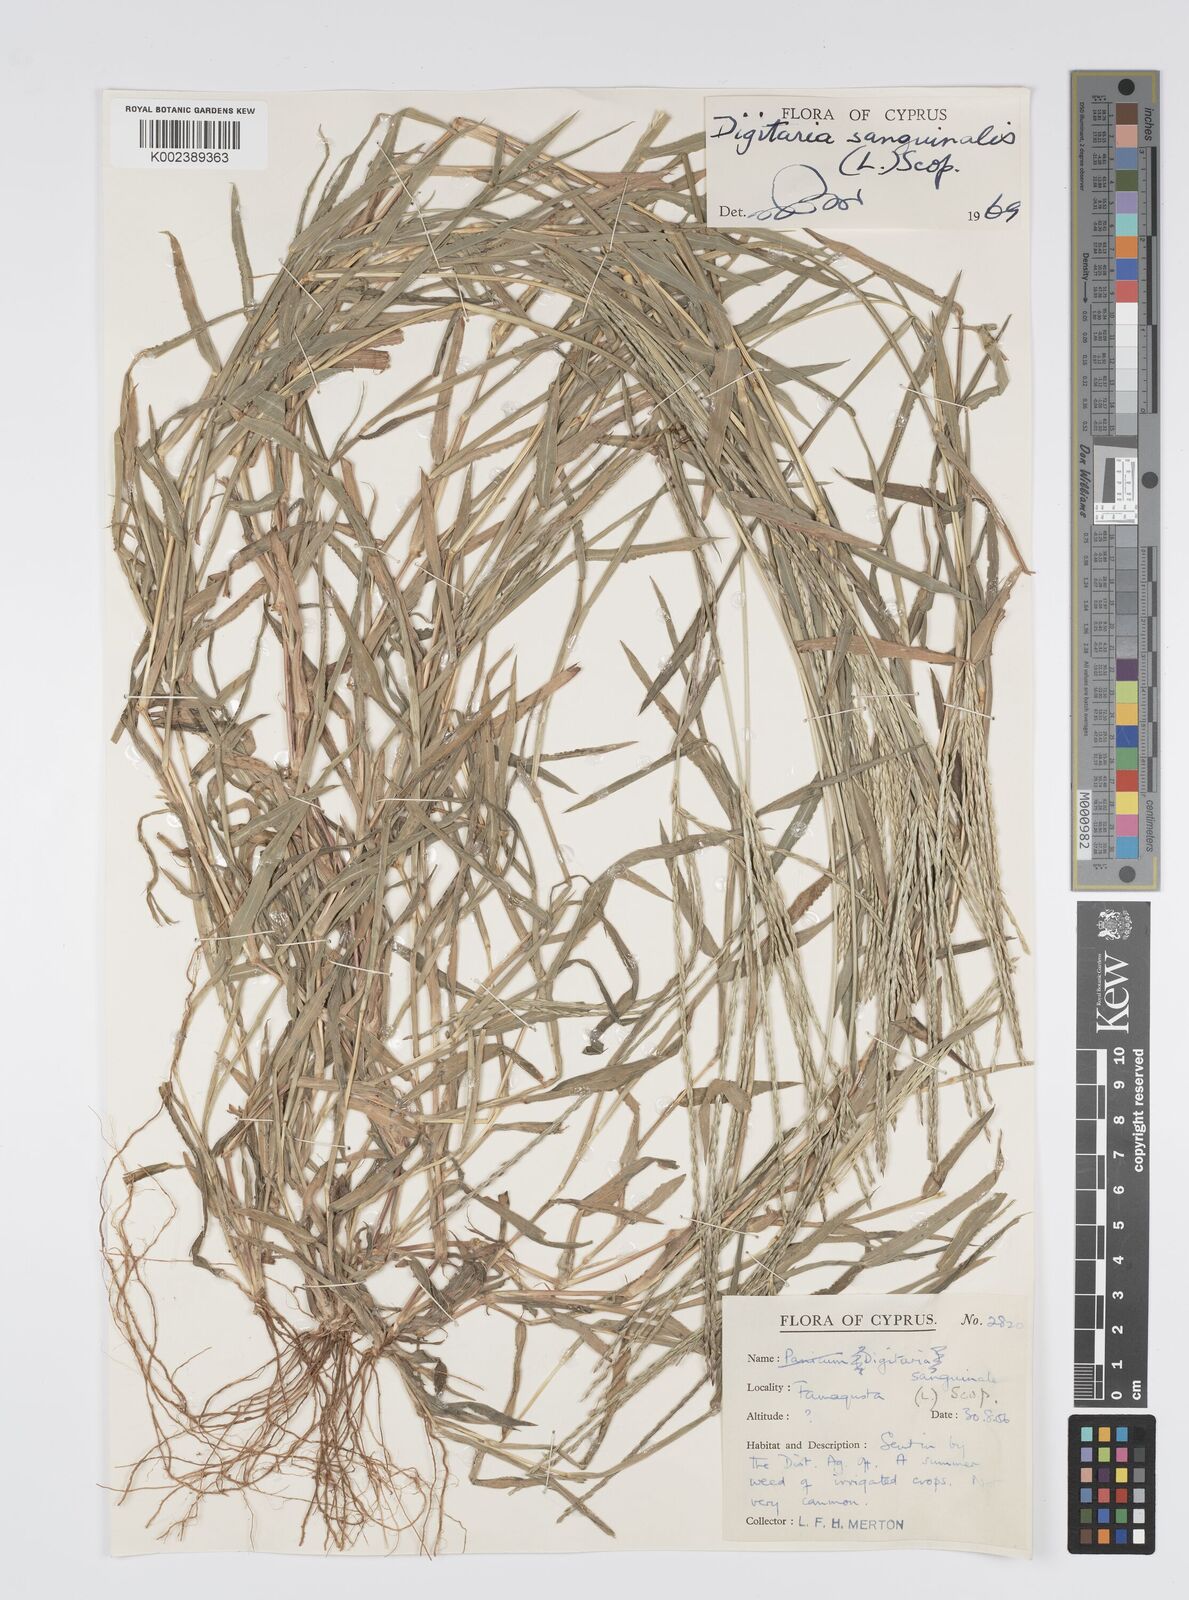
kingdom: Plantae
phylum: Tracheophyta
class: Liliopsida
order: Poales
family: Poaceae
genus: Digitaria
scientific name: Digitaria sanguinalis
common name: Hairy crabgrass
